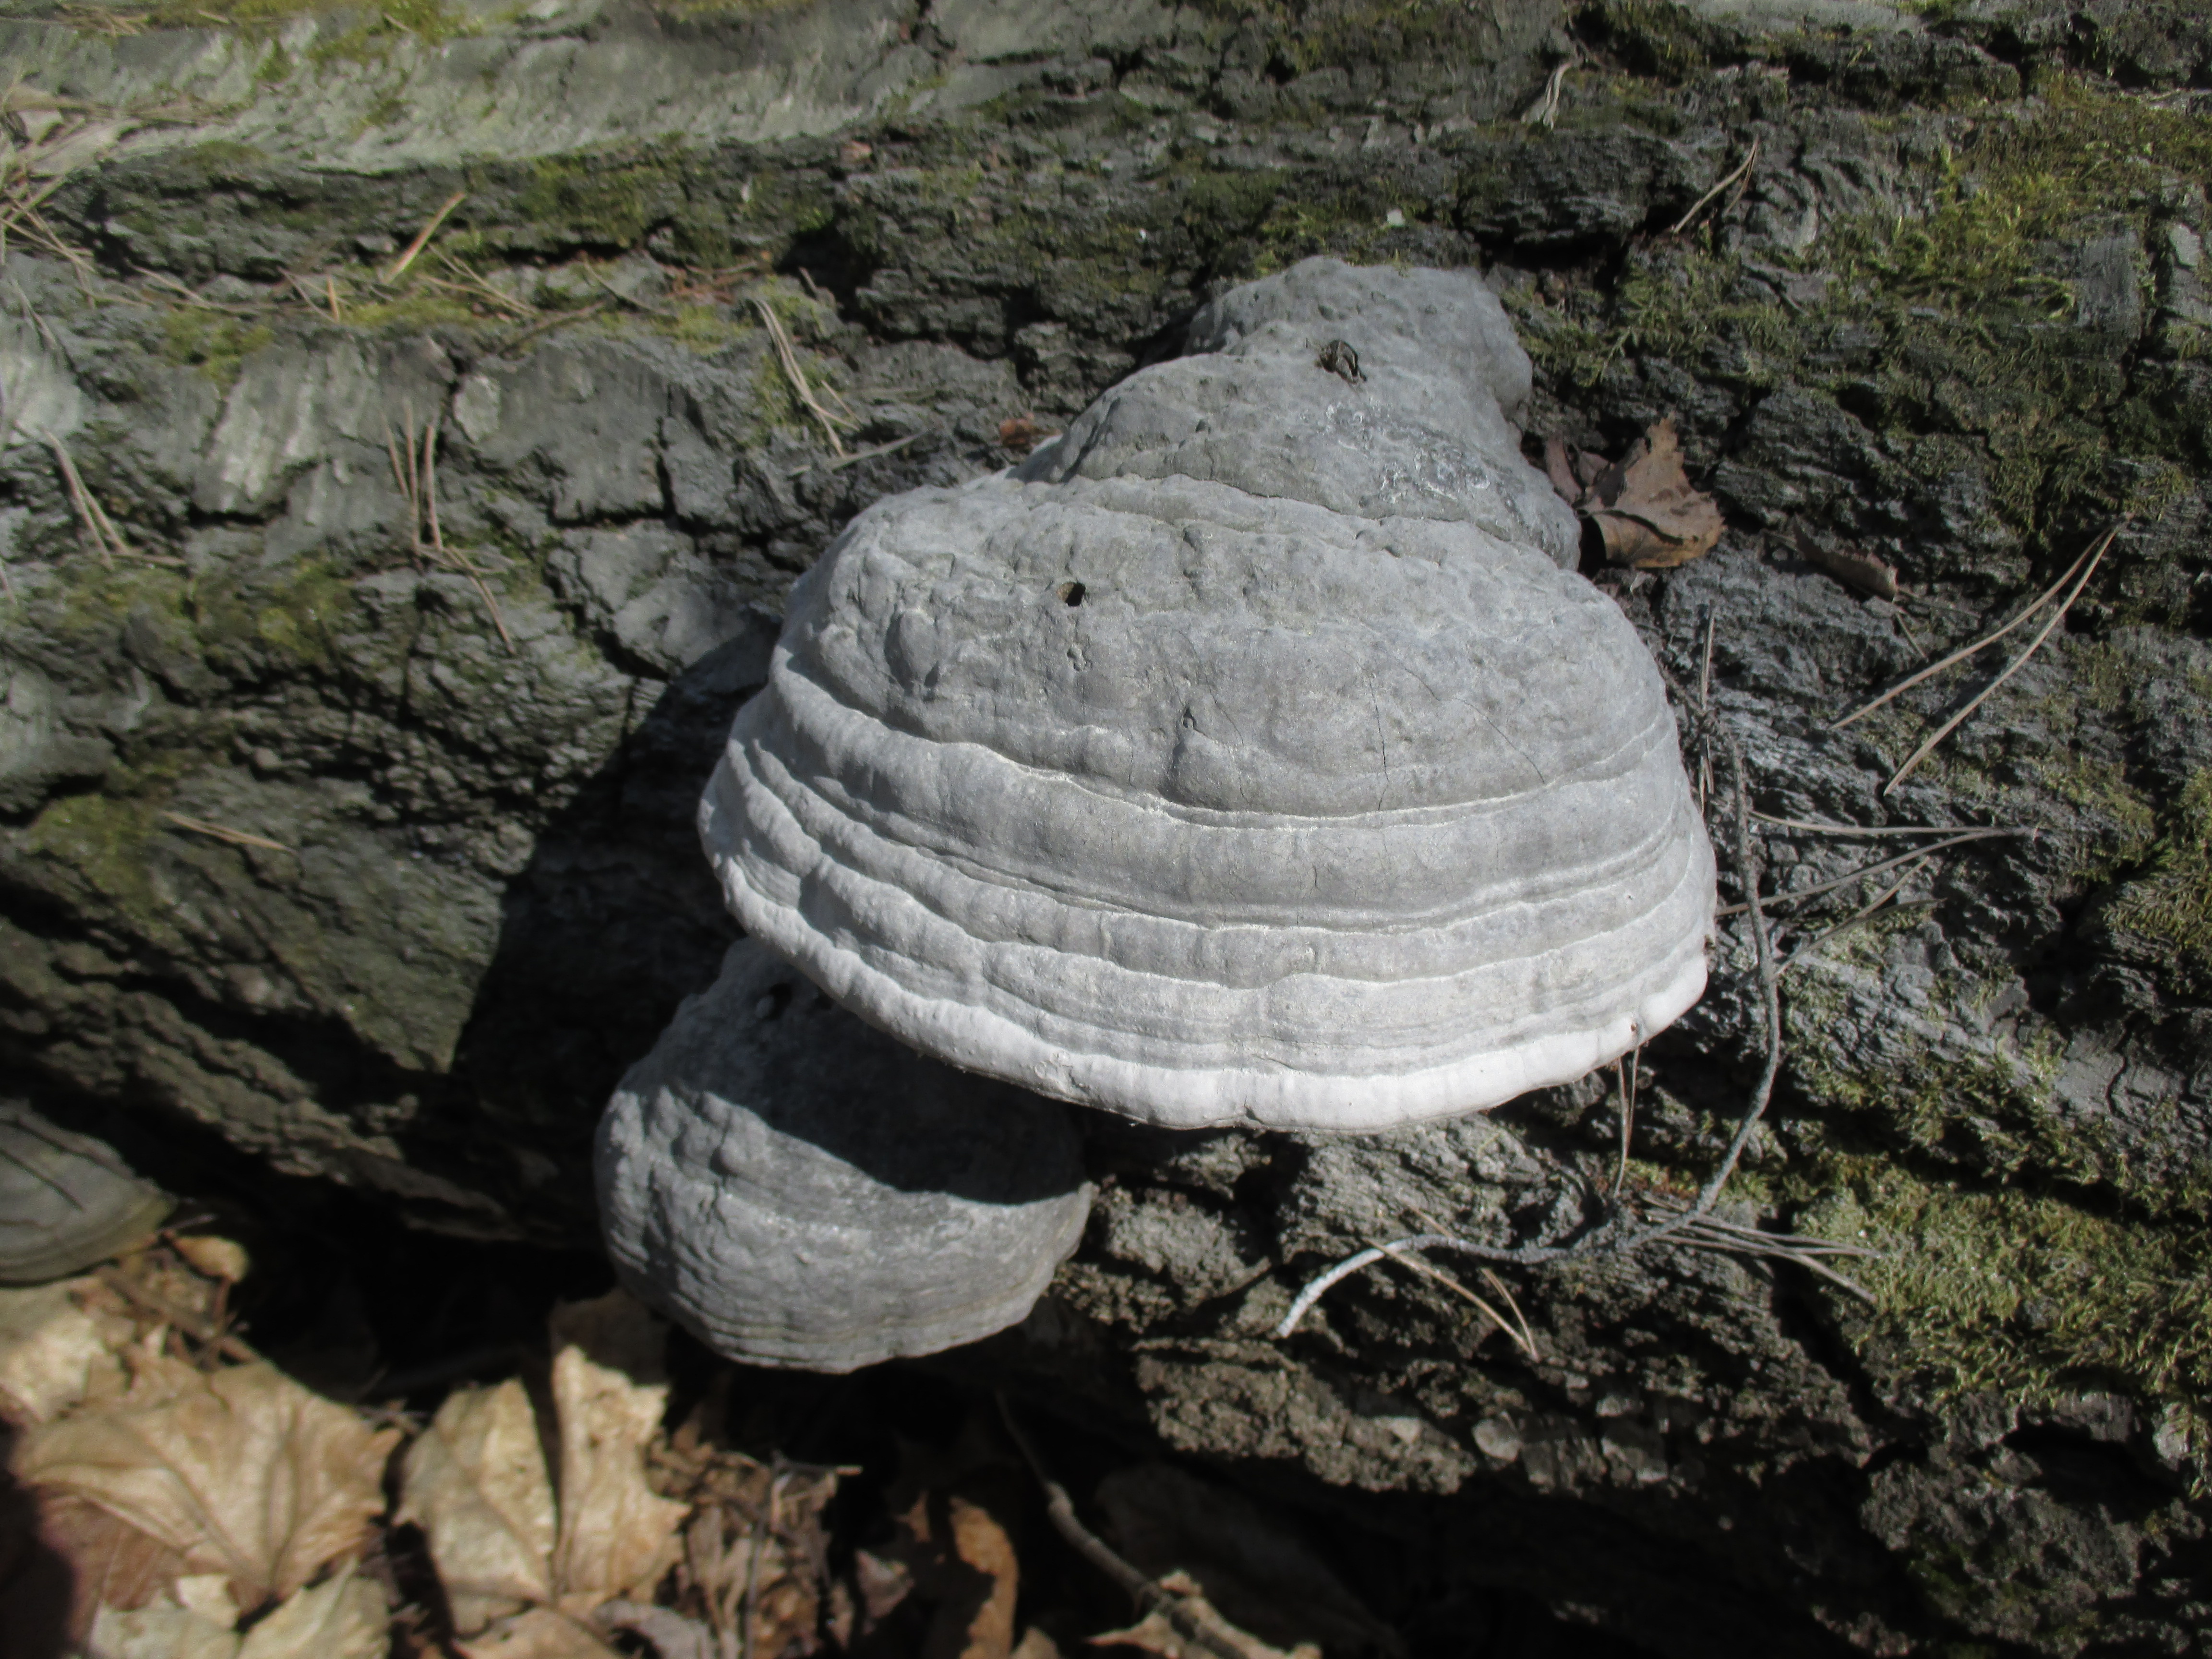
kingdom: Fungi
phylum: Basidiomycota
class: Agaricomycetes
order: Polyporales
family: Polyporaceae
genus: Fomes
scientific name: Fomes fomentarius
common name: Hoof fungus
